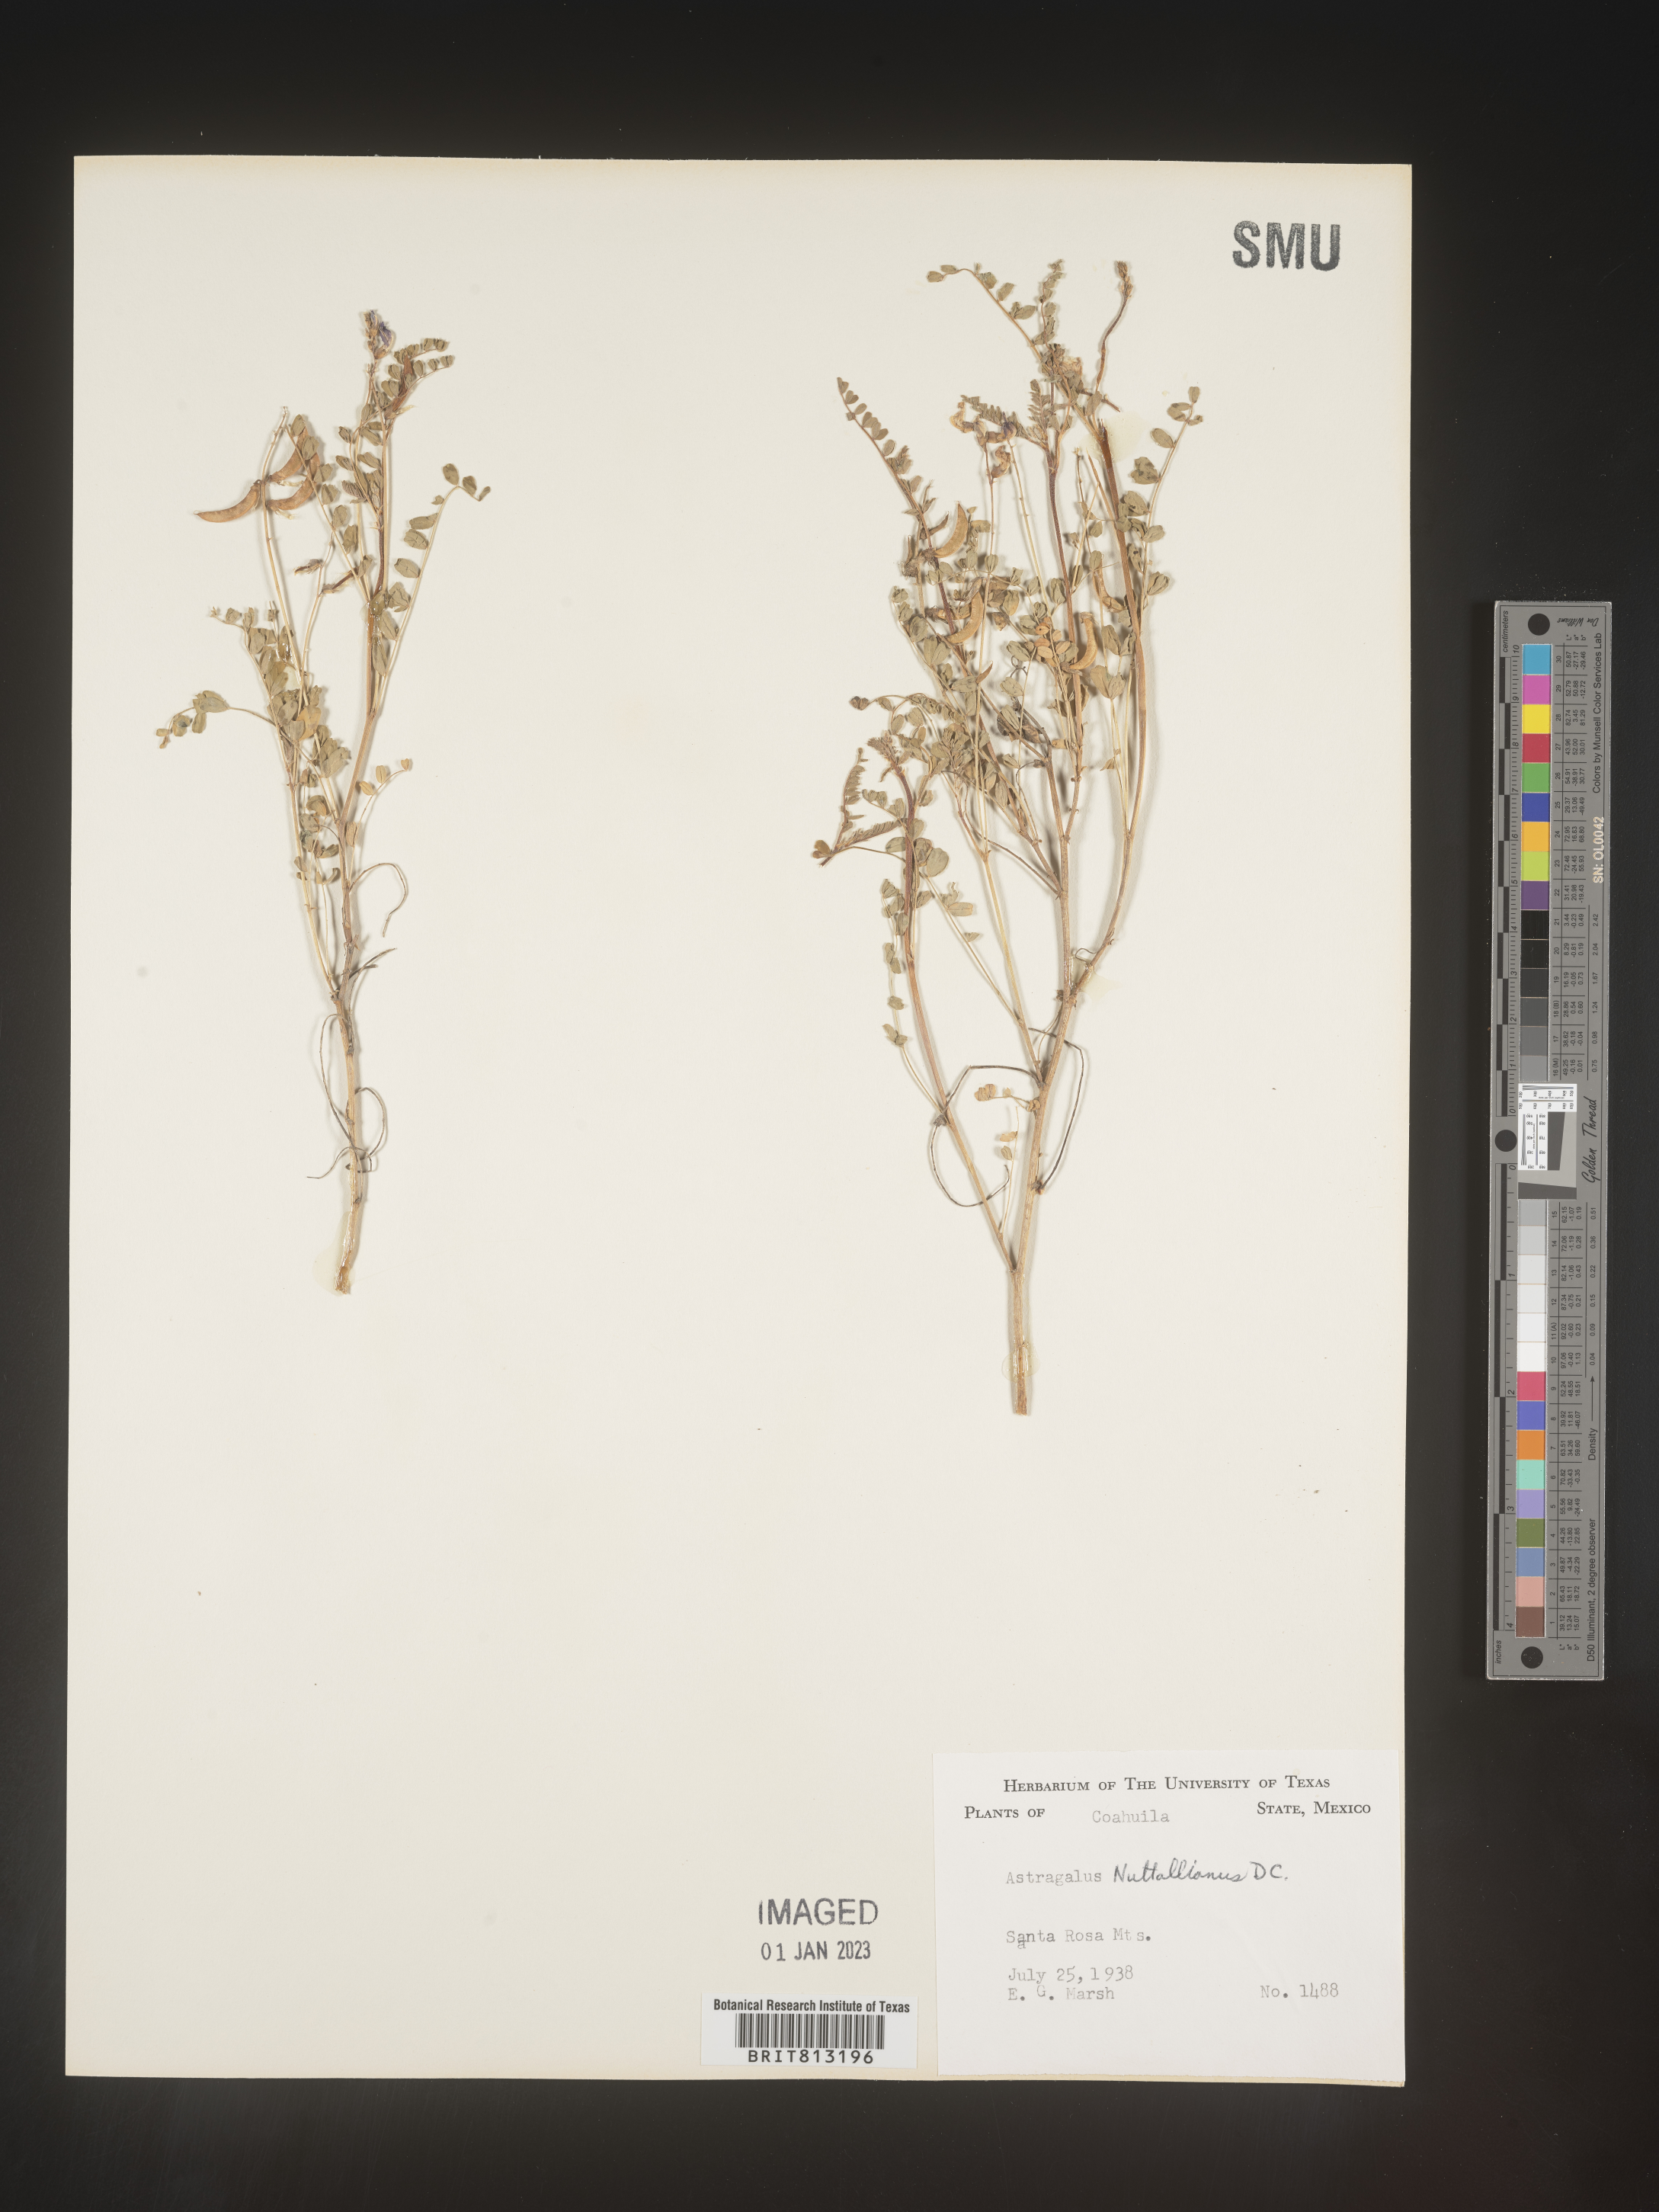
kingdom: Plantae
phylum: Tracheophyta
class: Magnoliopsida
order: Fabales
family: Fabaceae
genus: Astragalus
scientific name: Astragalus
